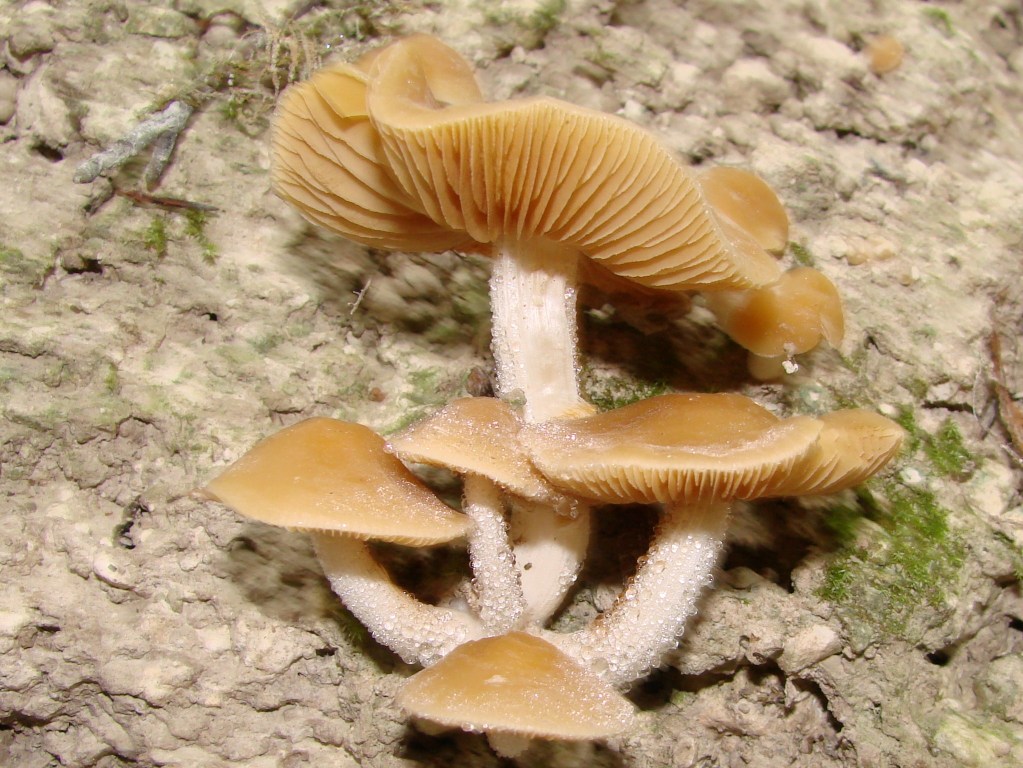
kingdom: Fungi
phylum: Basidiomycota
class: Agaricomycetes
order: Agaricales
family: Bolbitiaceae
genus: Conocybe
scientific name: Conocybe striipes
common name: knippe-dansehat
